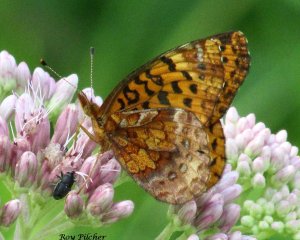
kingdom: Animalia
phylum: Arthropoda
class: Insecta
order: Lepidoptera
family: Nymphalidae
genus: Clossiana
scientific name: Clossiana toddi
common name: Meadow Fritillary
